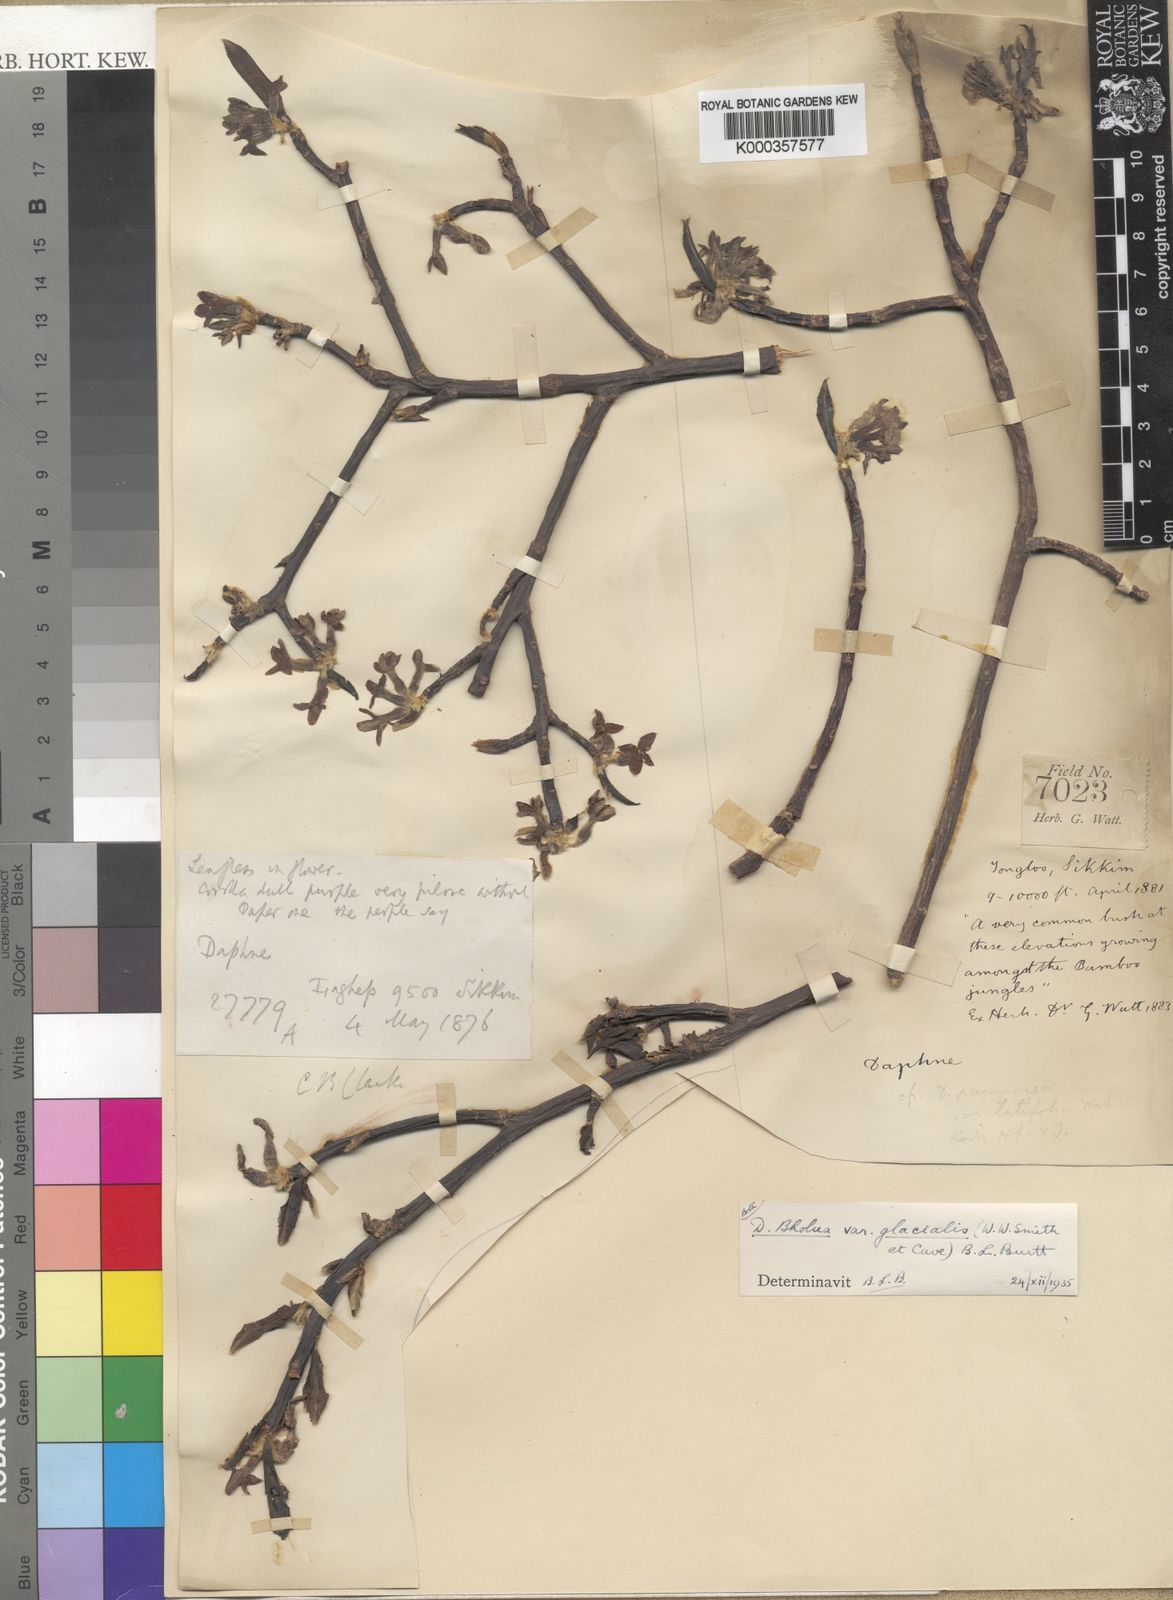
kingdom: Plantae
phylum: Tracheophyta
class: Magnoliopsida
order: Malvales
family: Thymelaeaceae
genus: Daphne
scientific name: Daphne bholua
